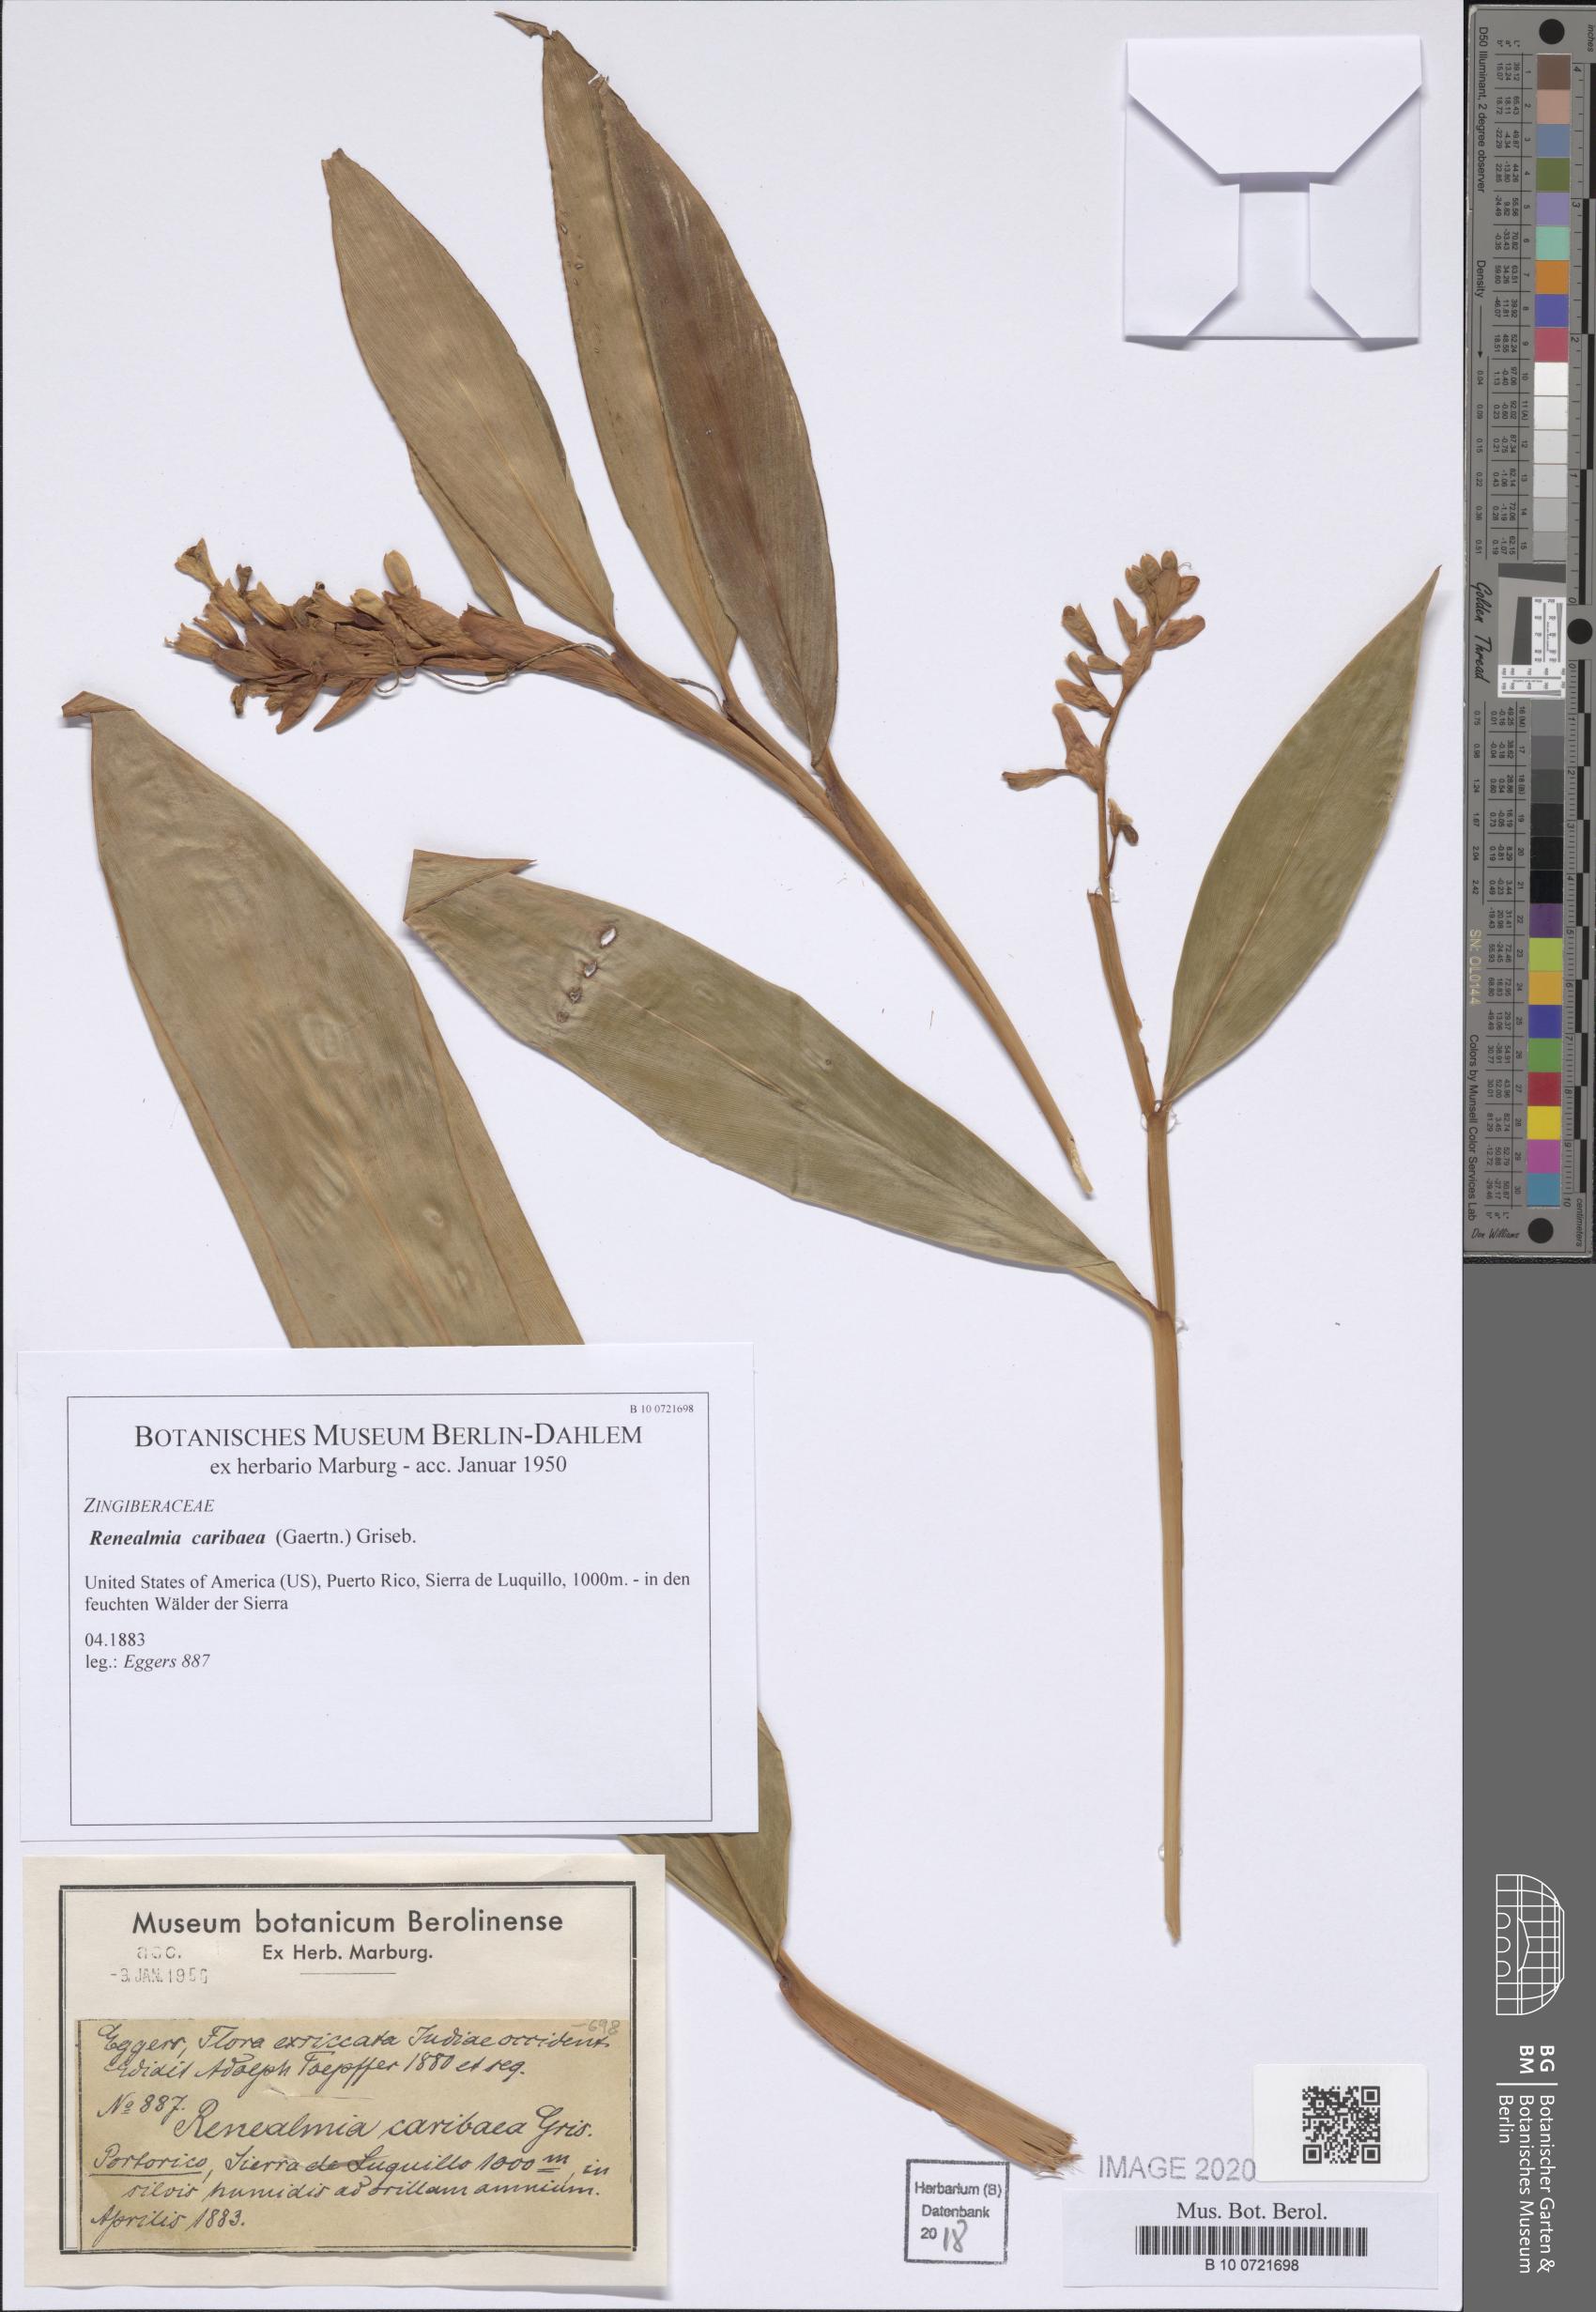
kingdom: Plantae
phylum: Tracheophyta
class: Liliopsida
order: Zingiberales
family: Zingiberaceae
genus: Renealmia
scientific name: Renealmia pyramidalis
